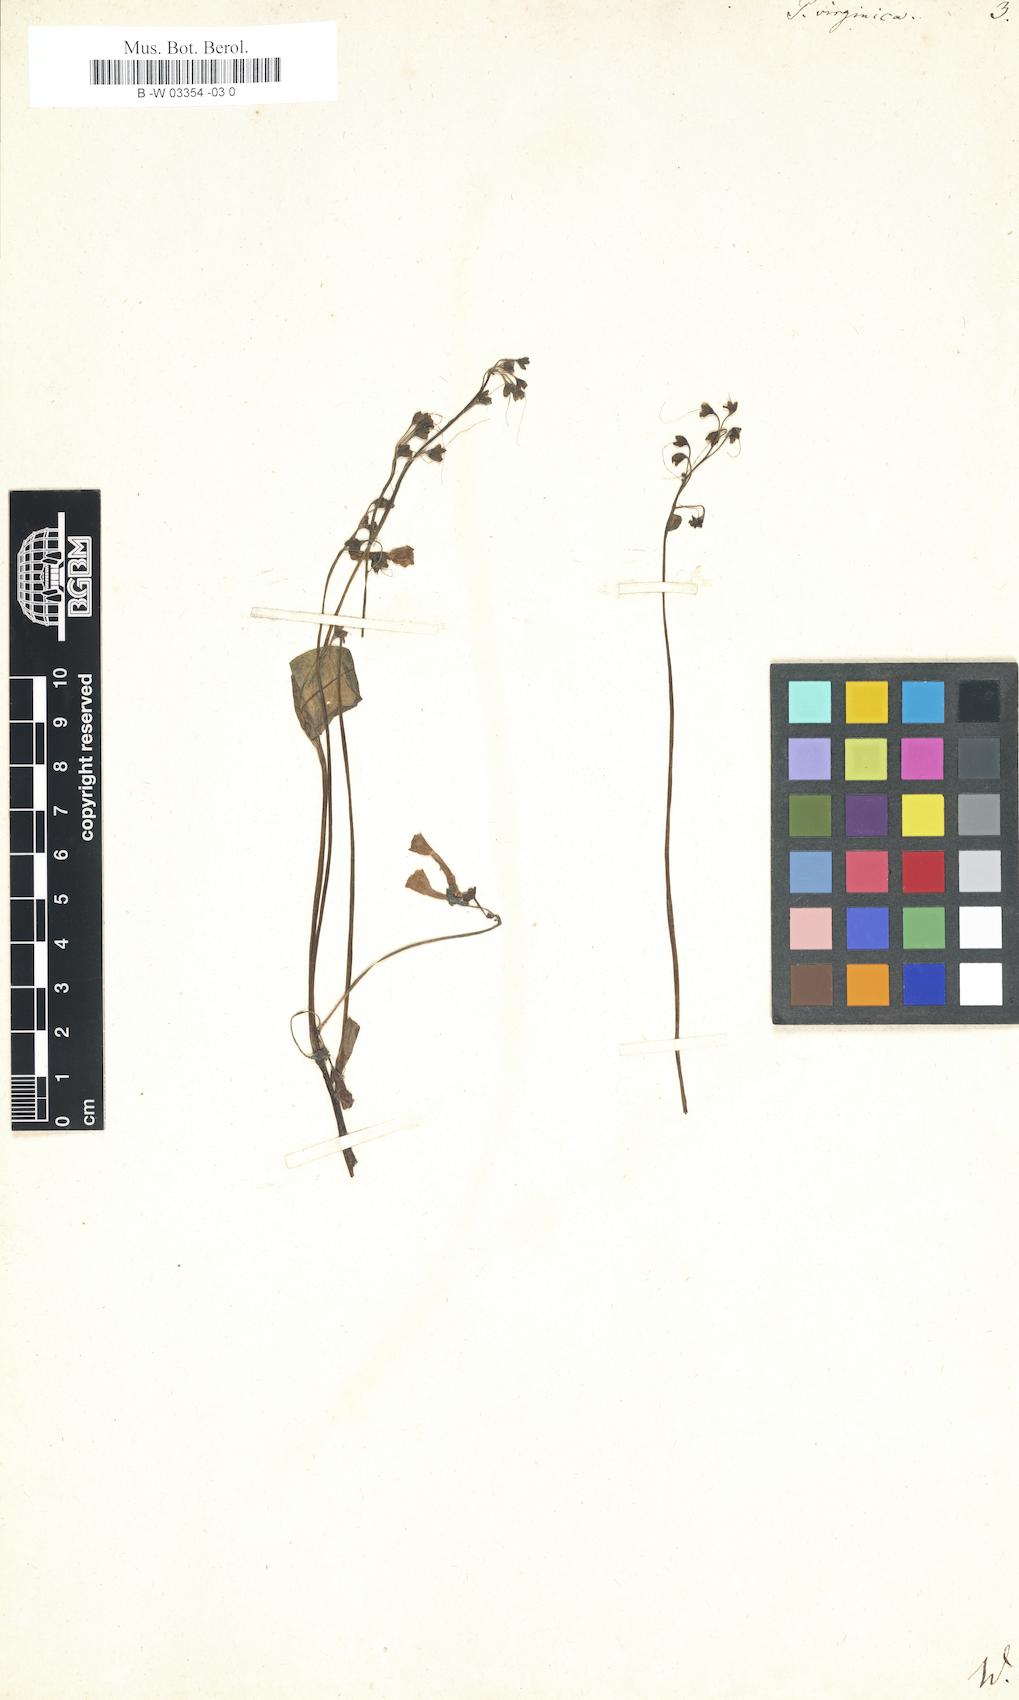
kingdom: Plantae
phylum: Tracheophyta
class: Magnoliopsida
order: Boraginales
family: Boraginaceae
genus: Mertensia
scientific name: Mertensia virginica
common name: Virginia bluebells
